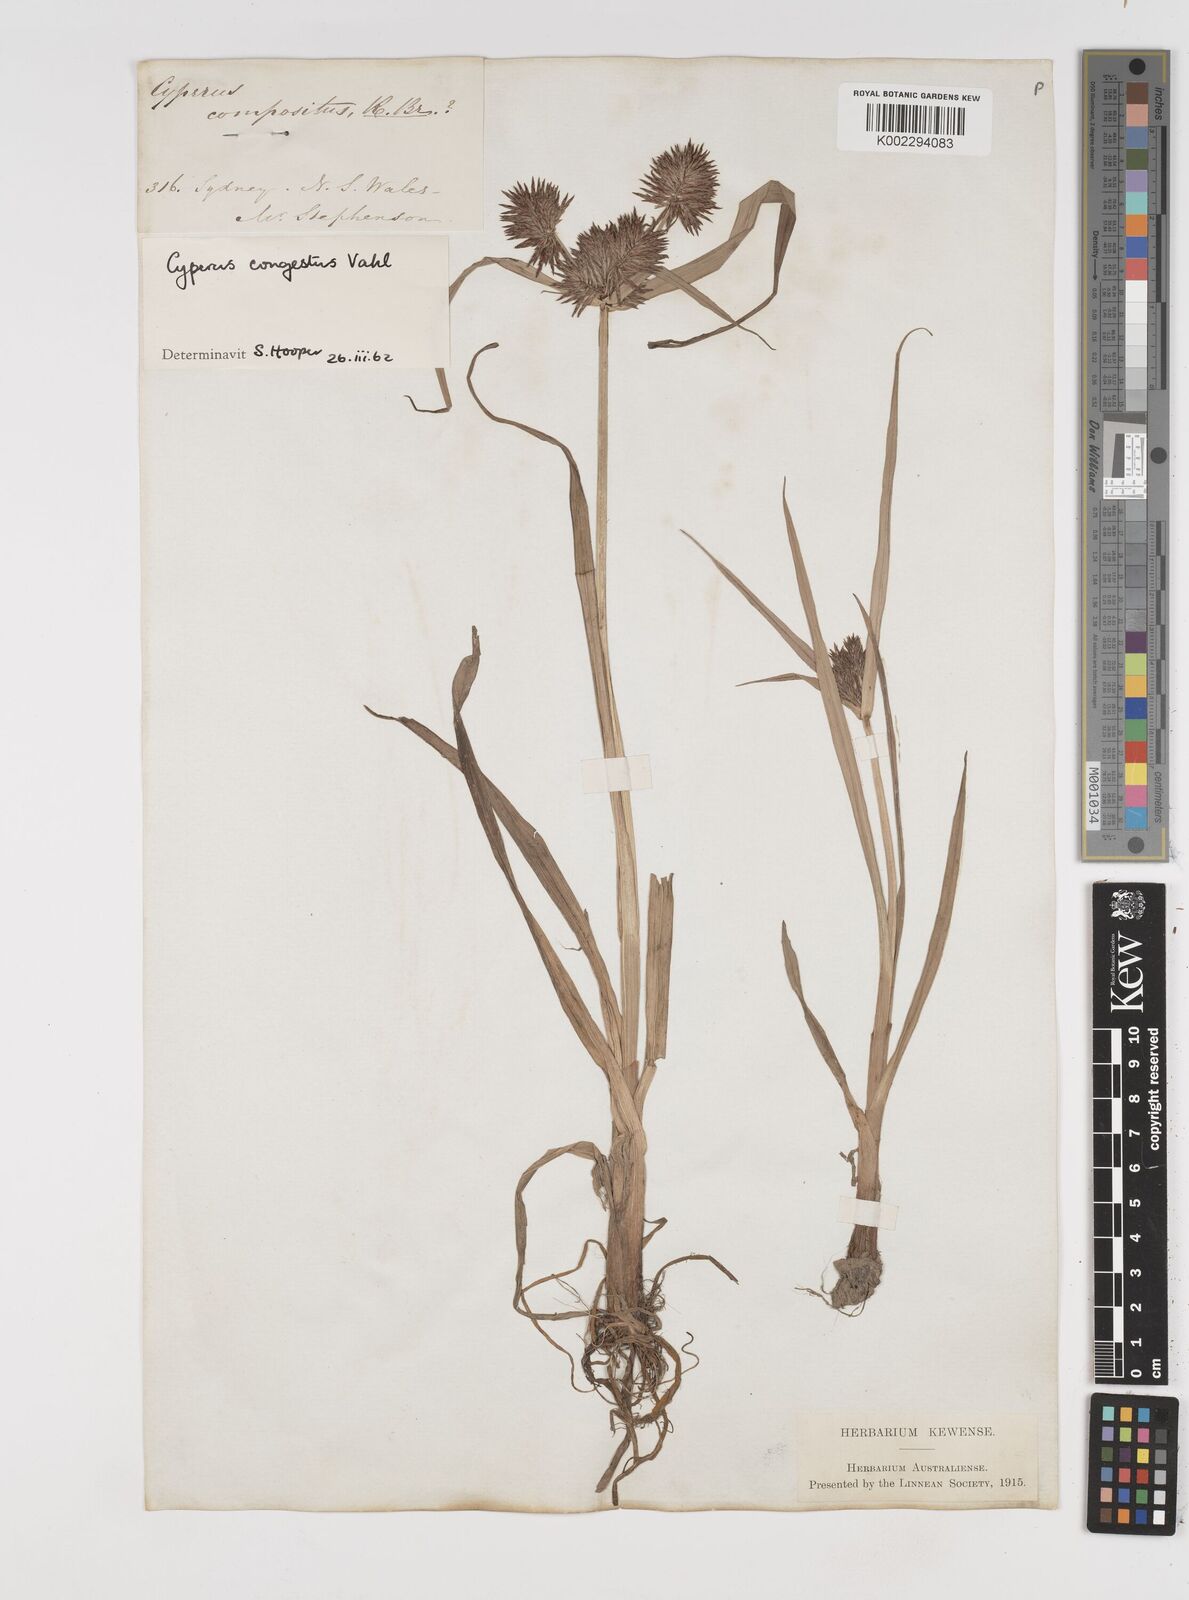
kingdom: Plantae
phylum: Tracheophyta
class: Liliopsida
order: Poales
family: Cyperaceae
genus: Cyperus
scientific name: Cyperus congestus
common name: Dense flat sedge
